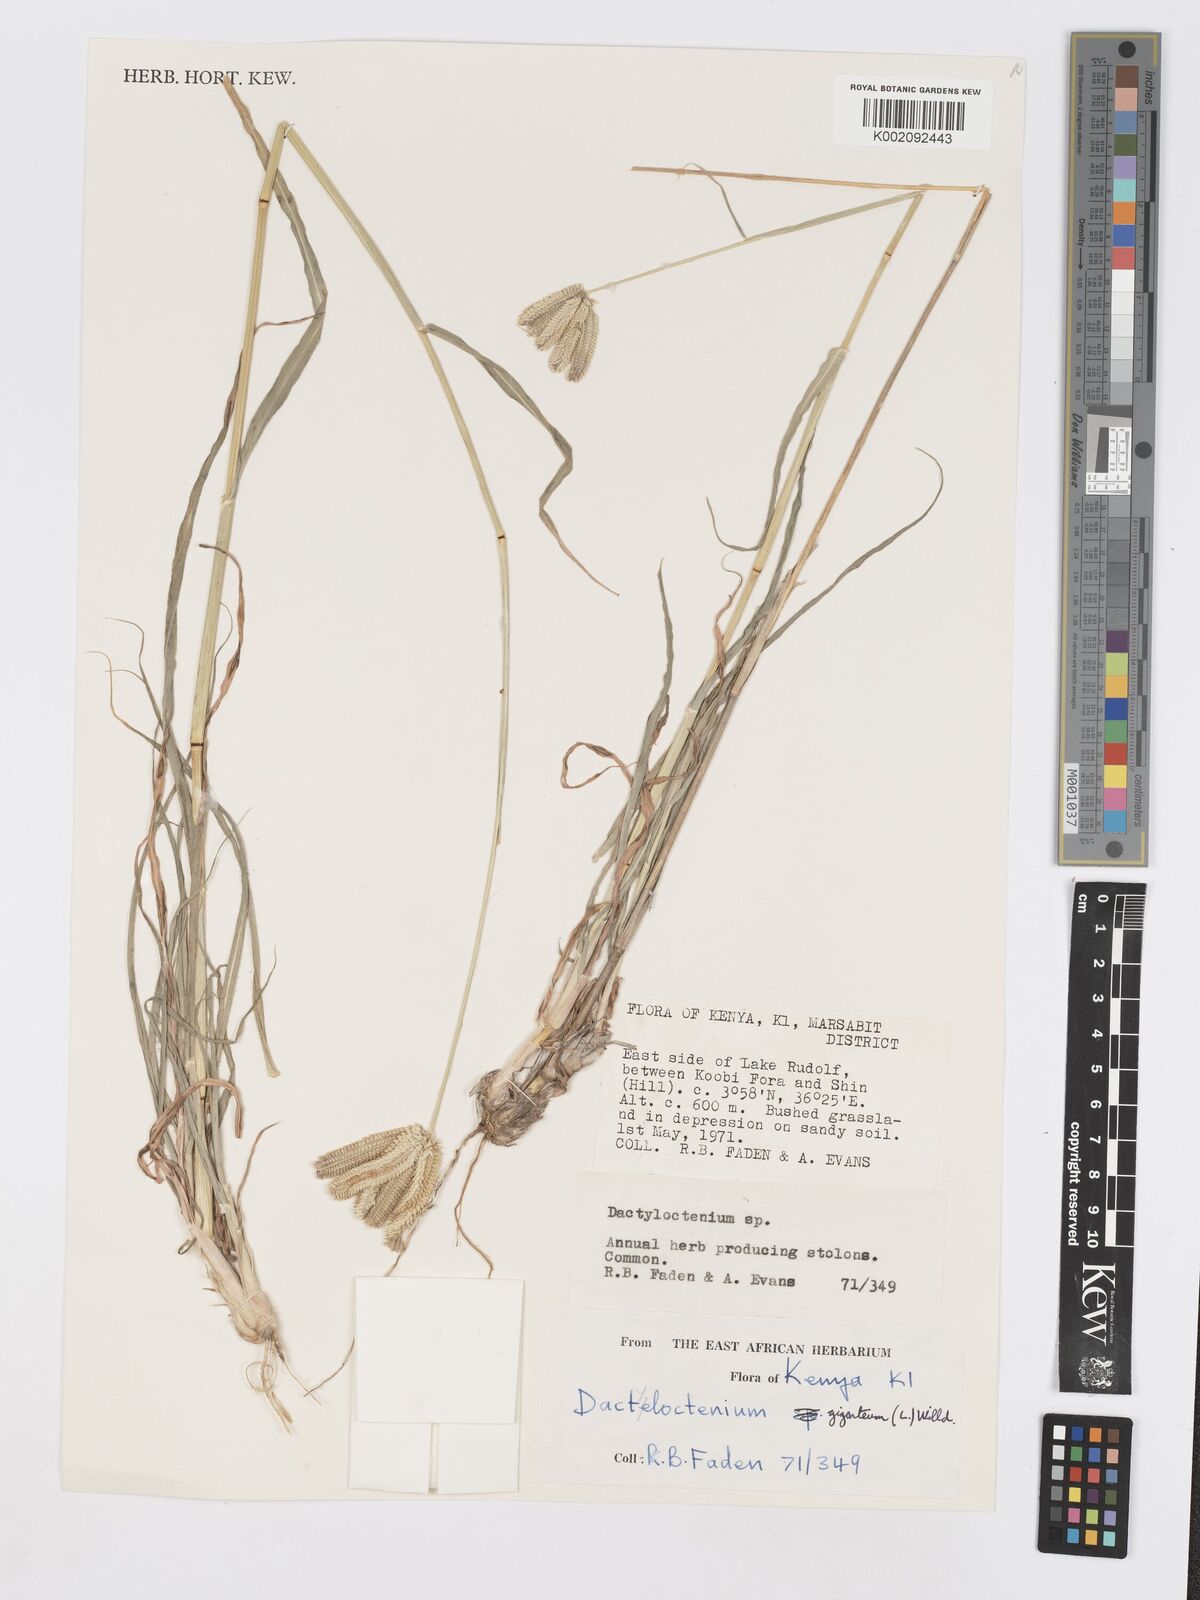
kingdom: Plantae
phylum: Tracheophyta
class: Liliopsida
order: Poales
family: Poaceae
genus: Dactyloctenium
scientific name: Dactyloctenium giganteum
